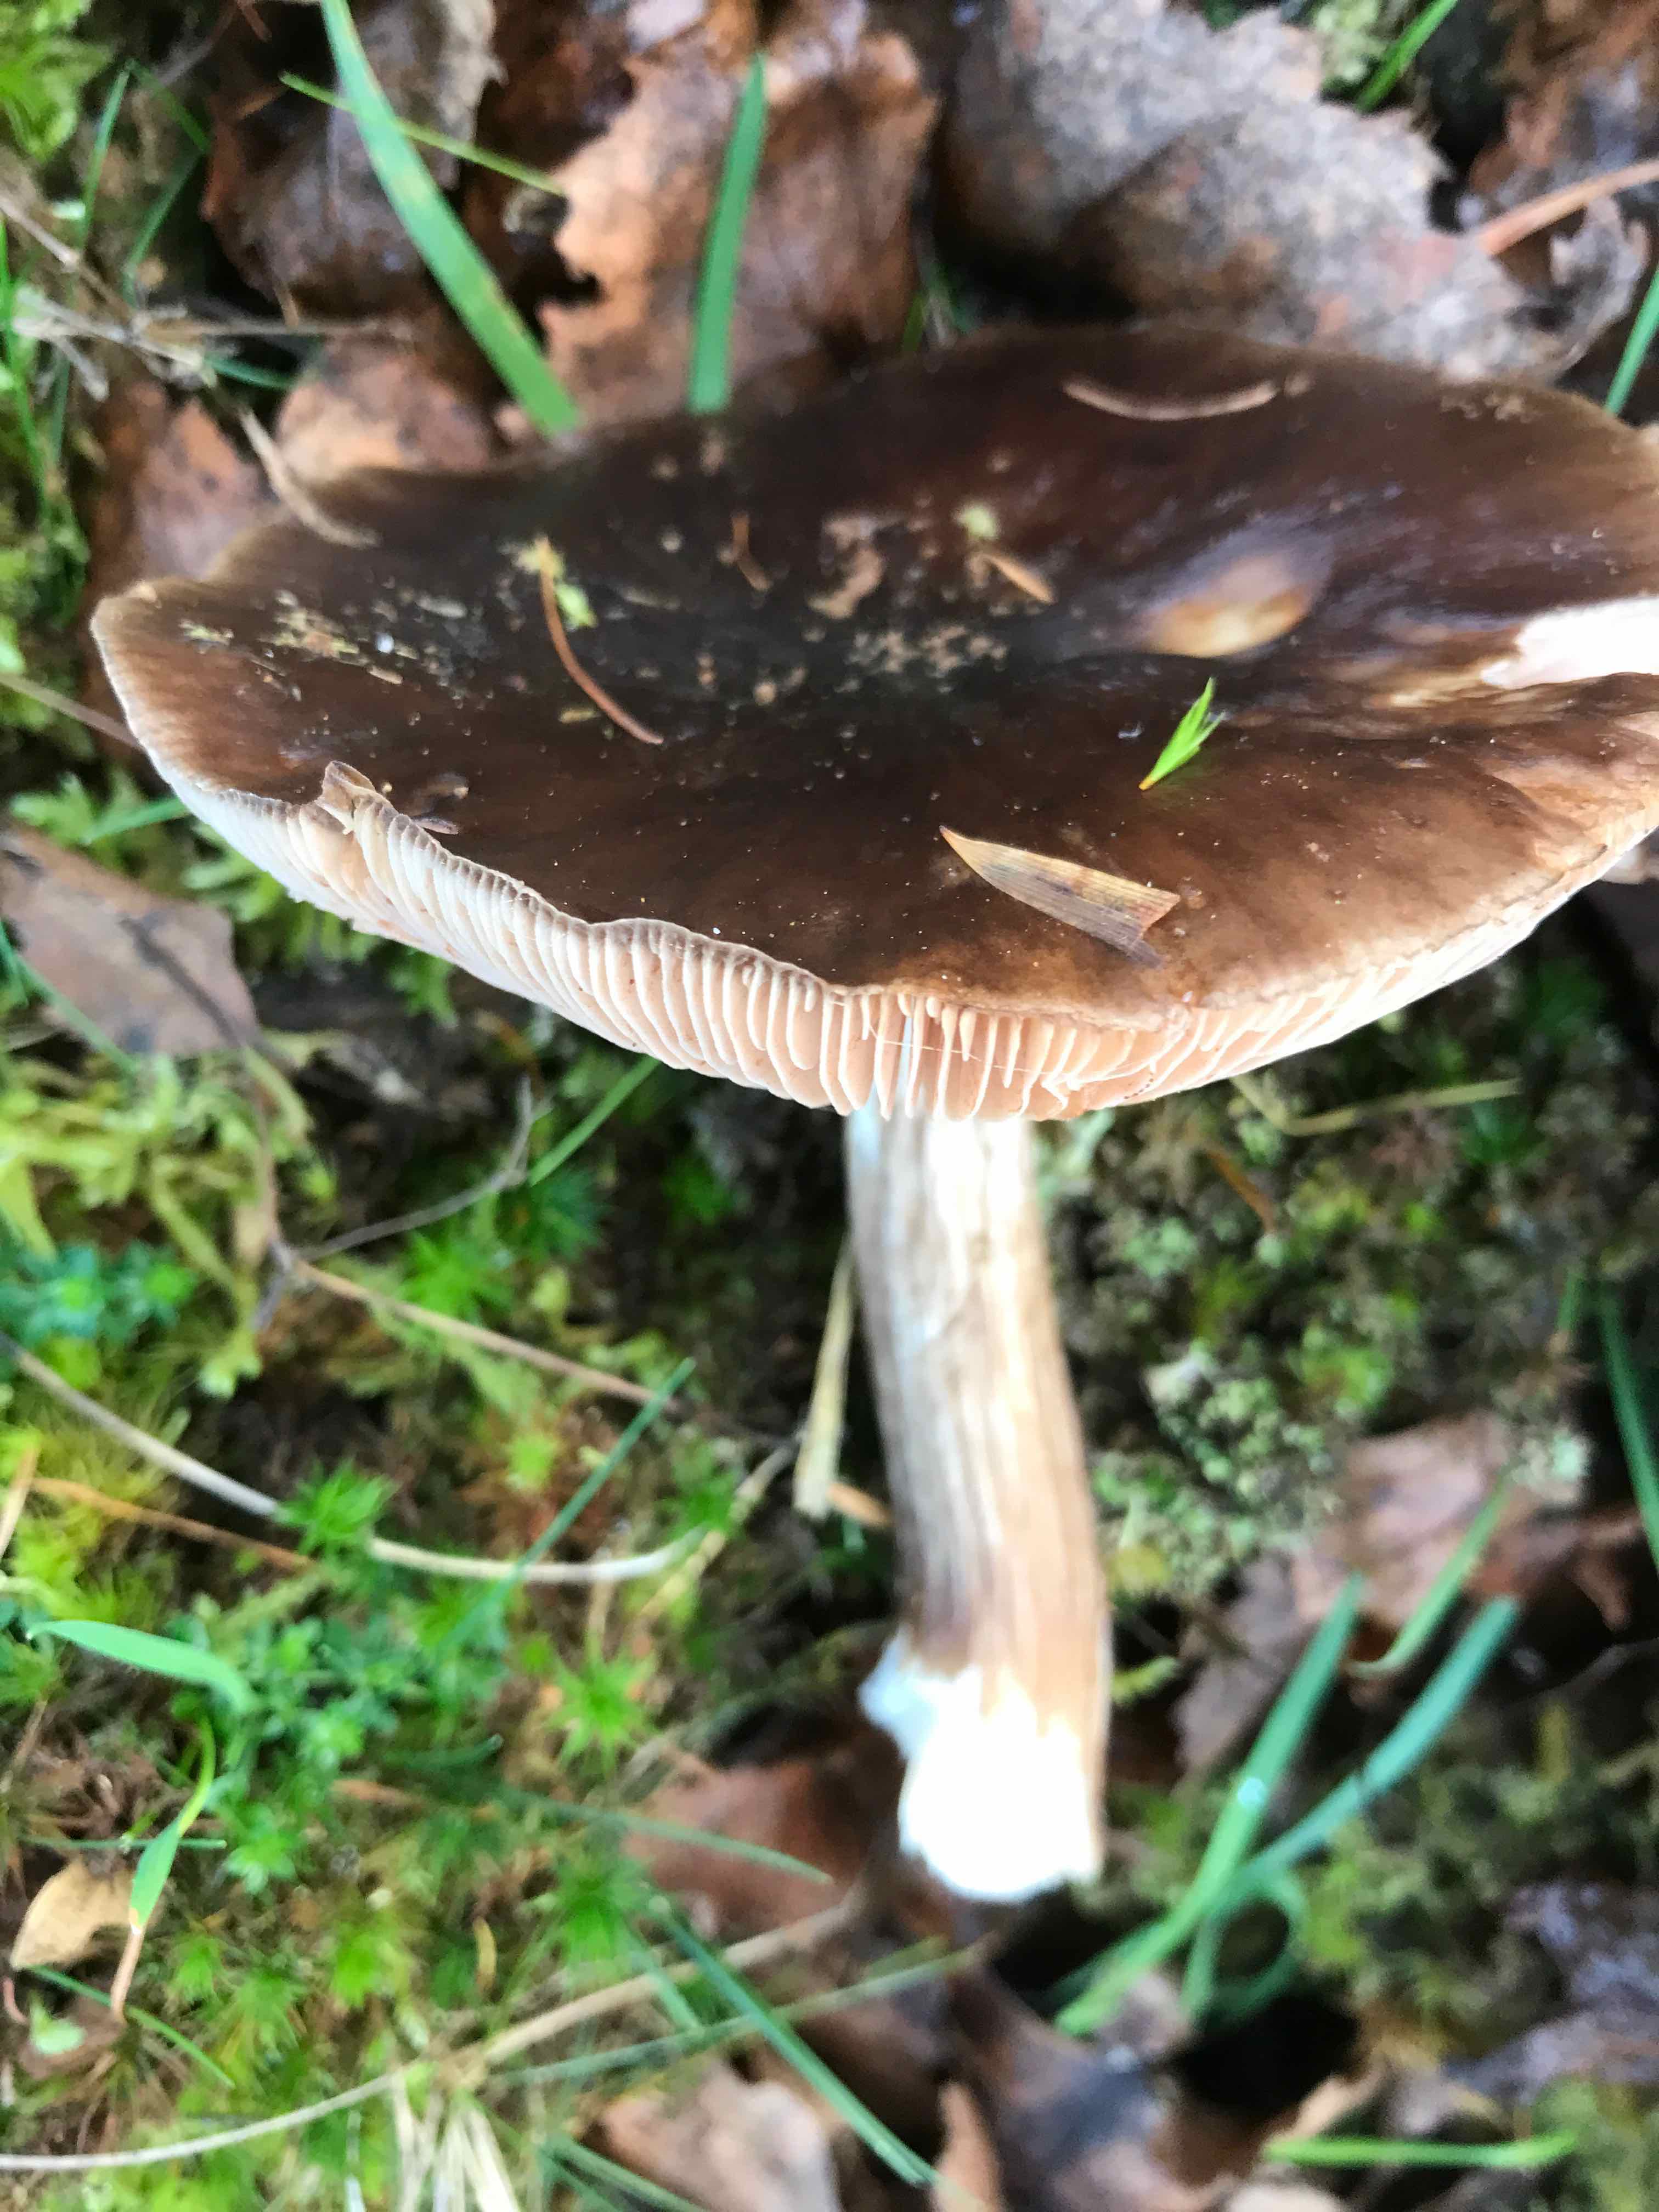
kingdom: Fungi
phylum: Basidiomycota
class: Agaricomycetes
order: Agaricales
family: Pluteaceae
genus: Pluteus
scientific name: Pluteus
